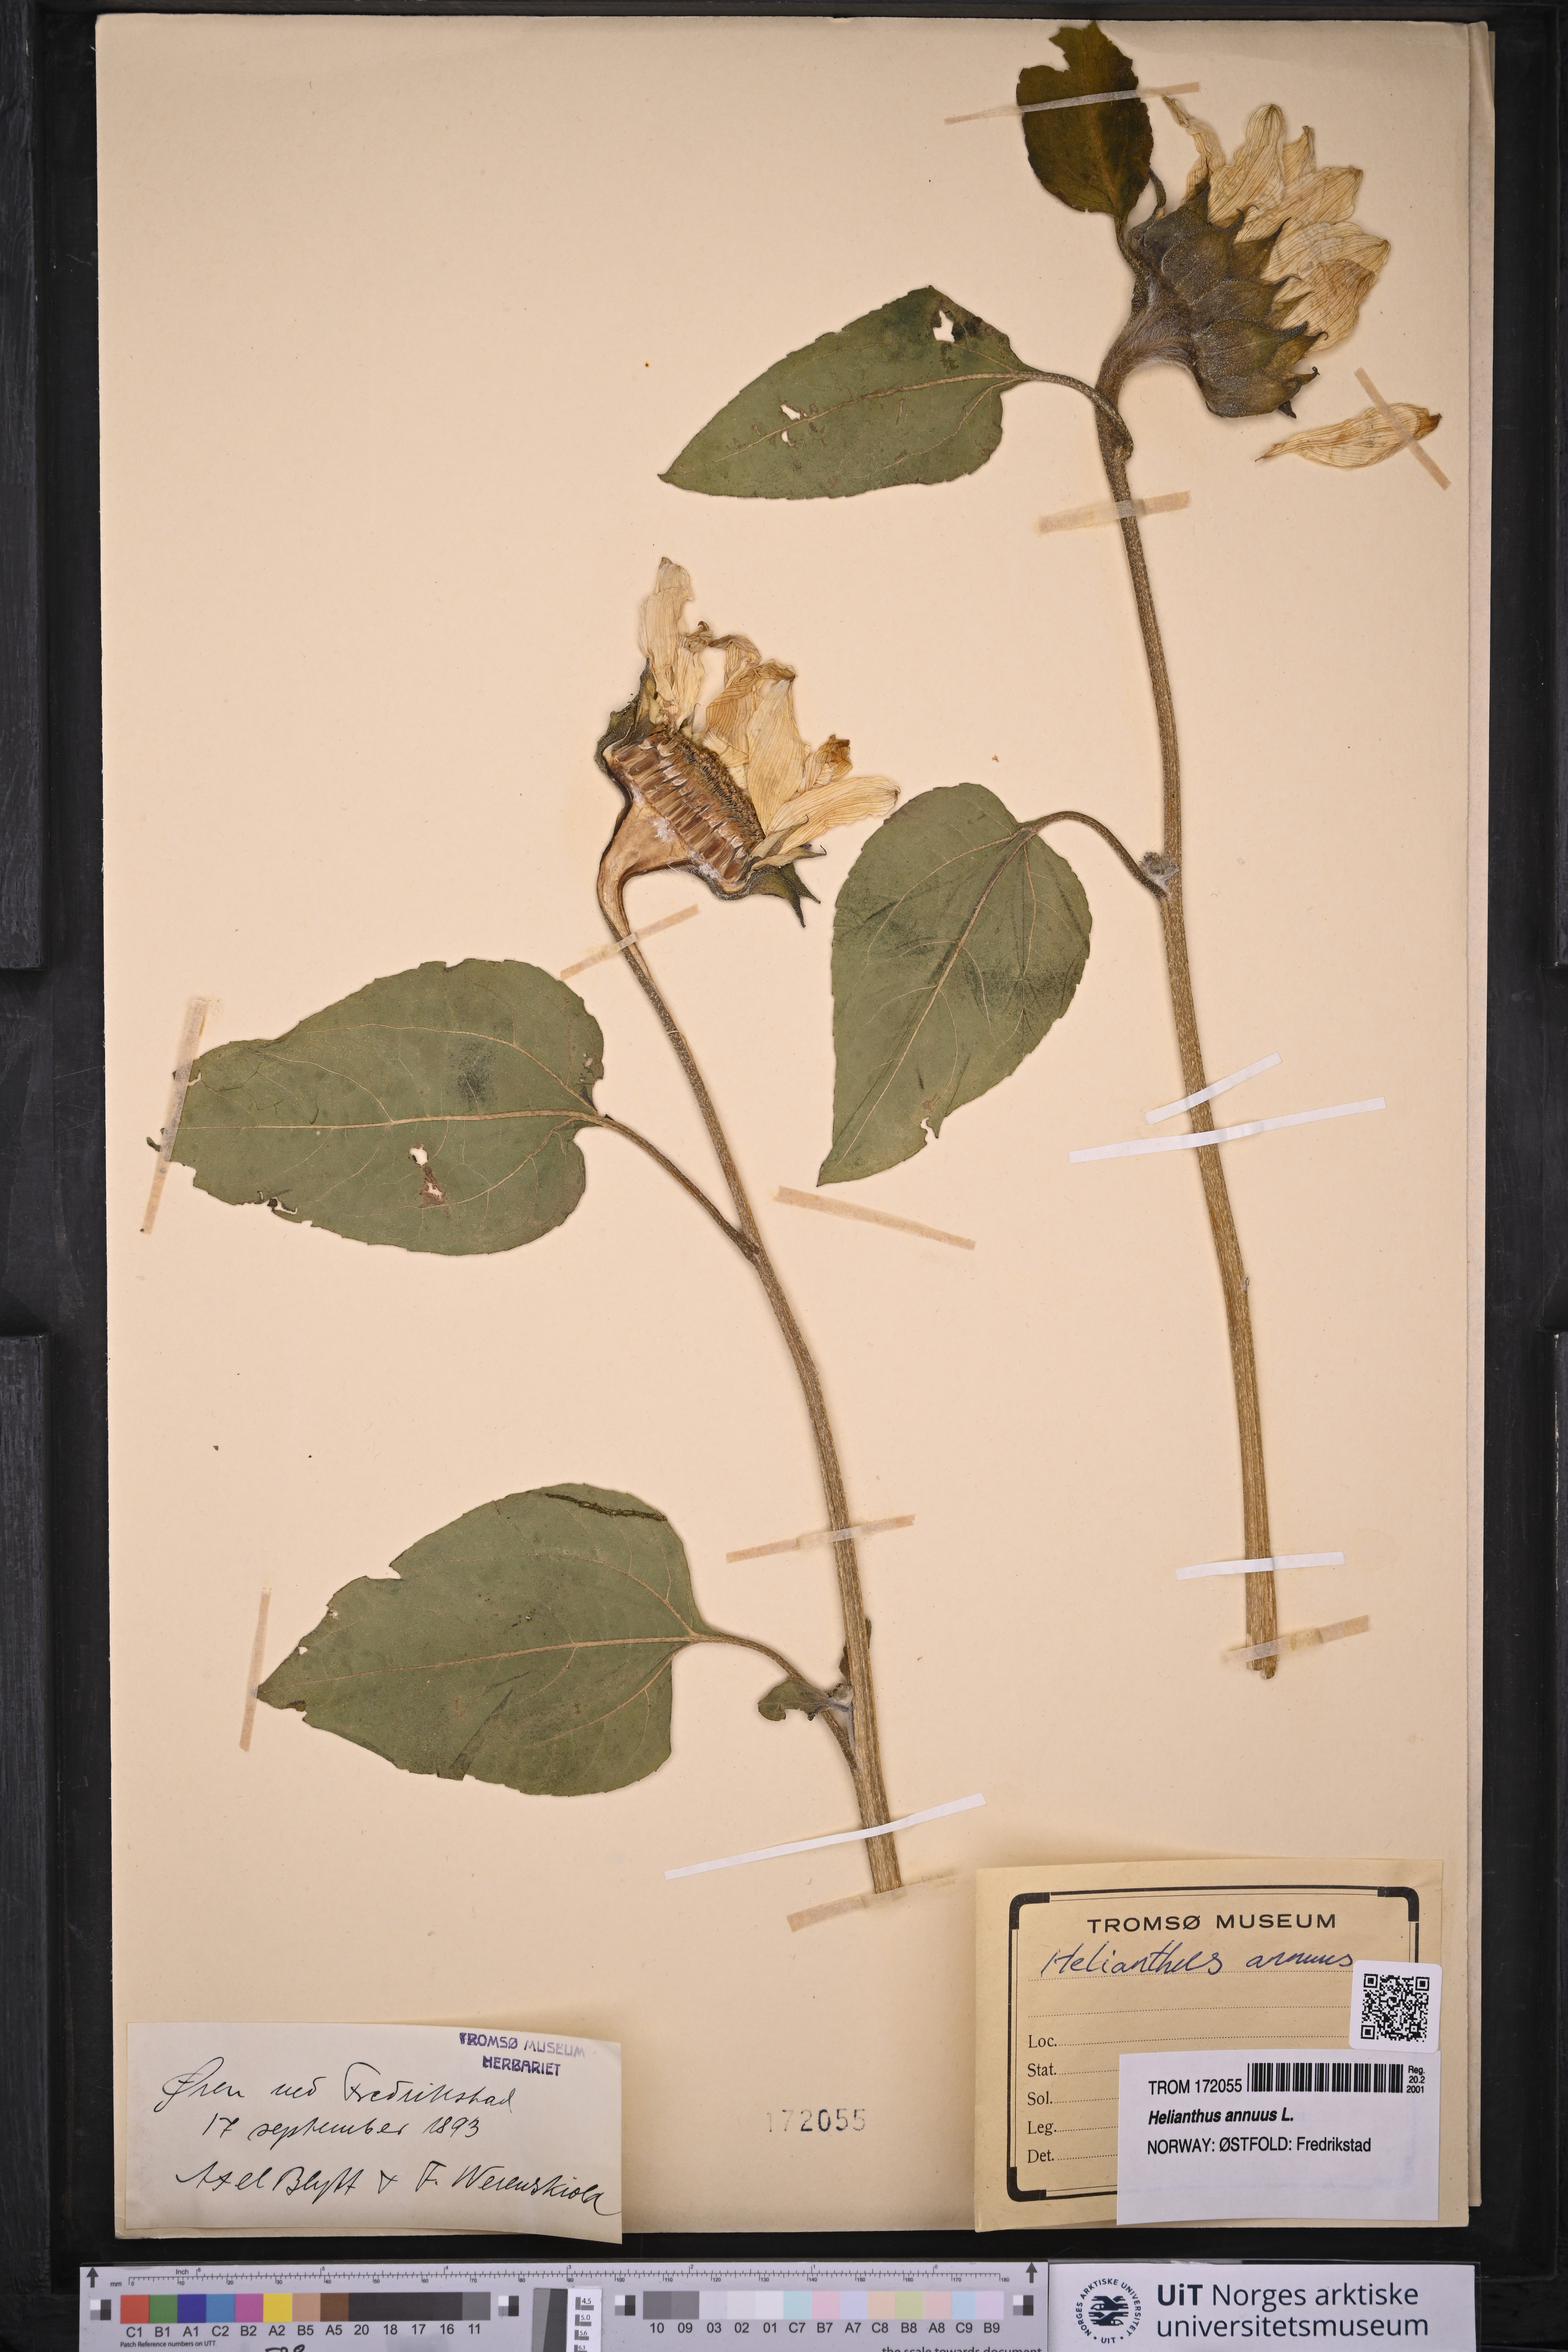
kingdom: Plantae
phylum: Tracheophyta
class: Magnoliopsida
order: Asterales
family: Asteraceae
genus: Helianthus
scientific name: Helianthus annuus
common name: Sunflower
